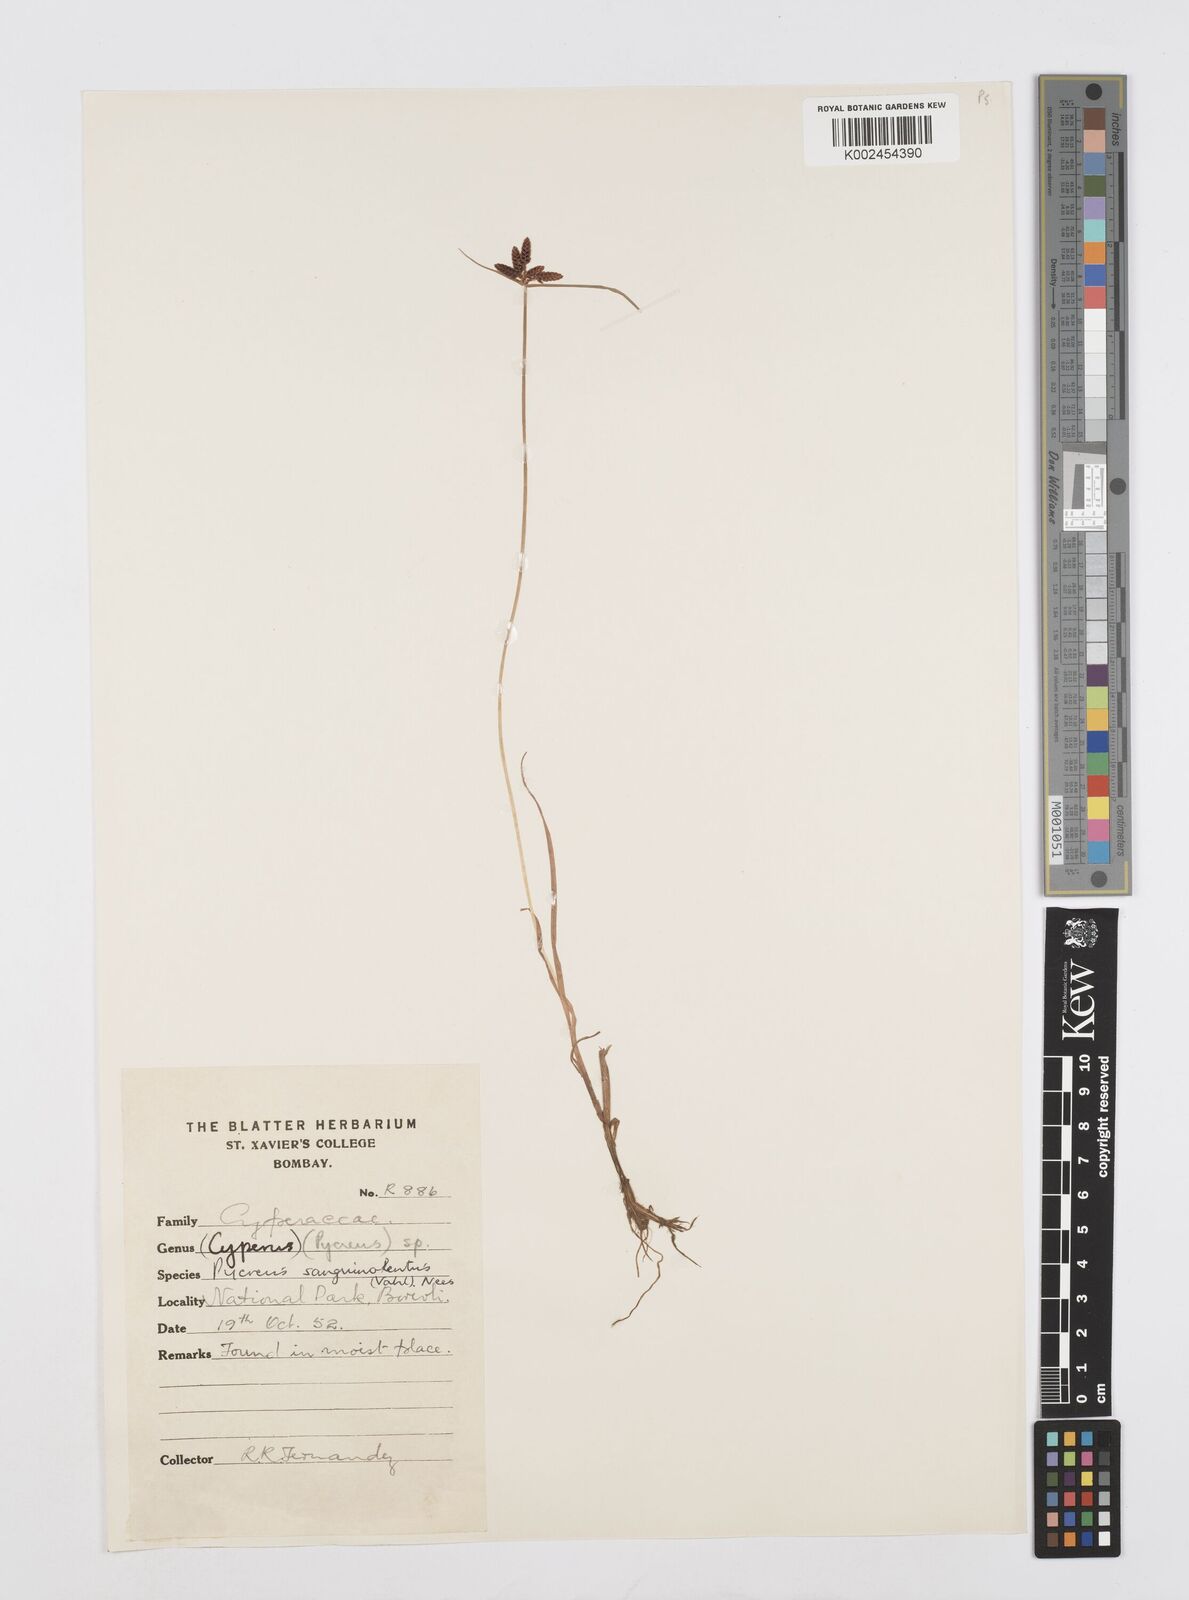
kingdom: Plantae
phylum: Tracheophyta
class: Liliopsida
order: Poales
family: Cyperaceae
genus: Cyperus
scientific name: Cyperus sanguinolentus
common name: Purpleglume flatsedge
